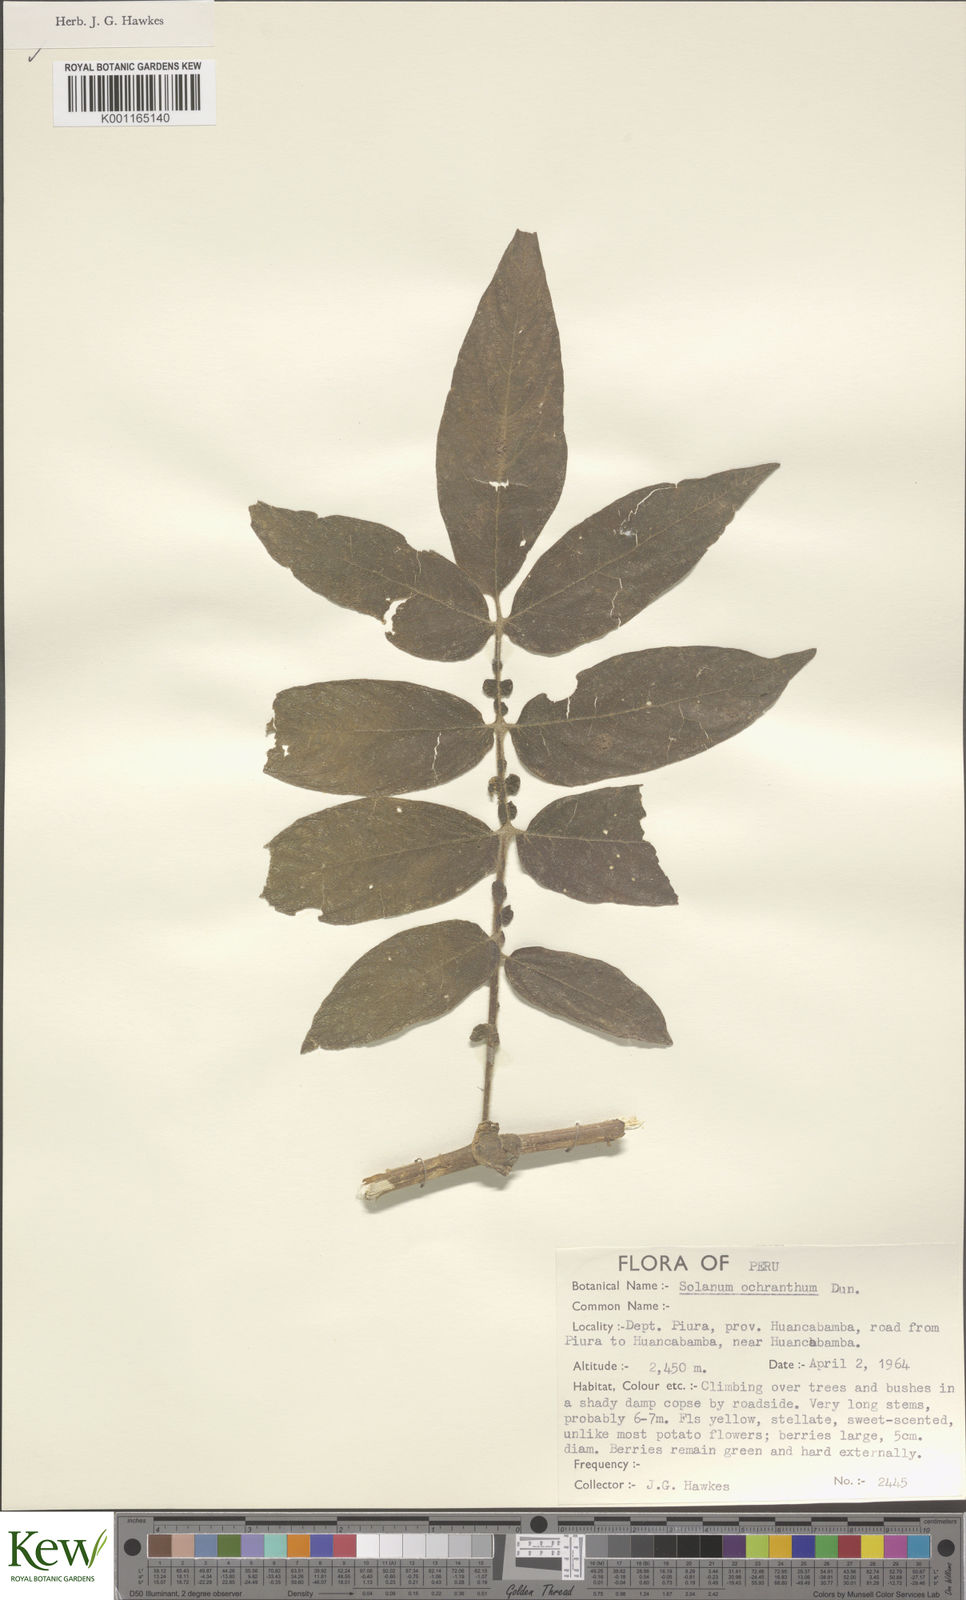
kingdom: Plantae
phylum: Tracheophyta
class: Magnoliopsida
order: Solanales
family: Solanaceae
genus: Solanum
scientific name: Solanum ochranthum
